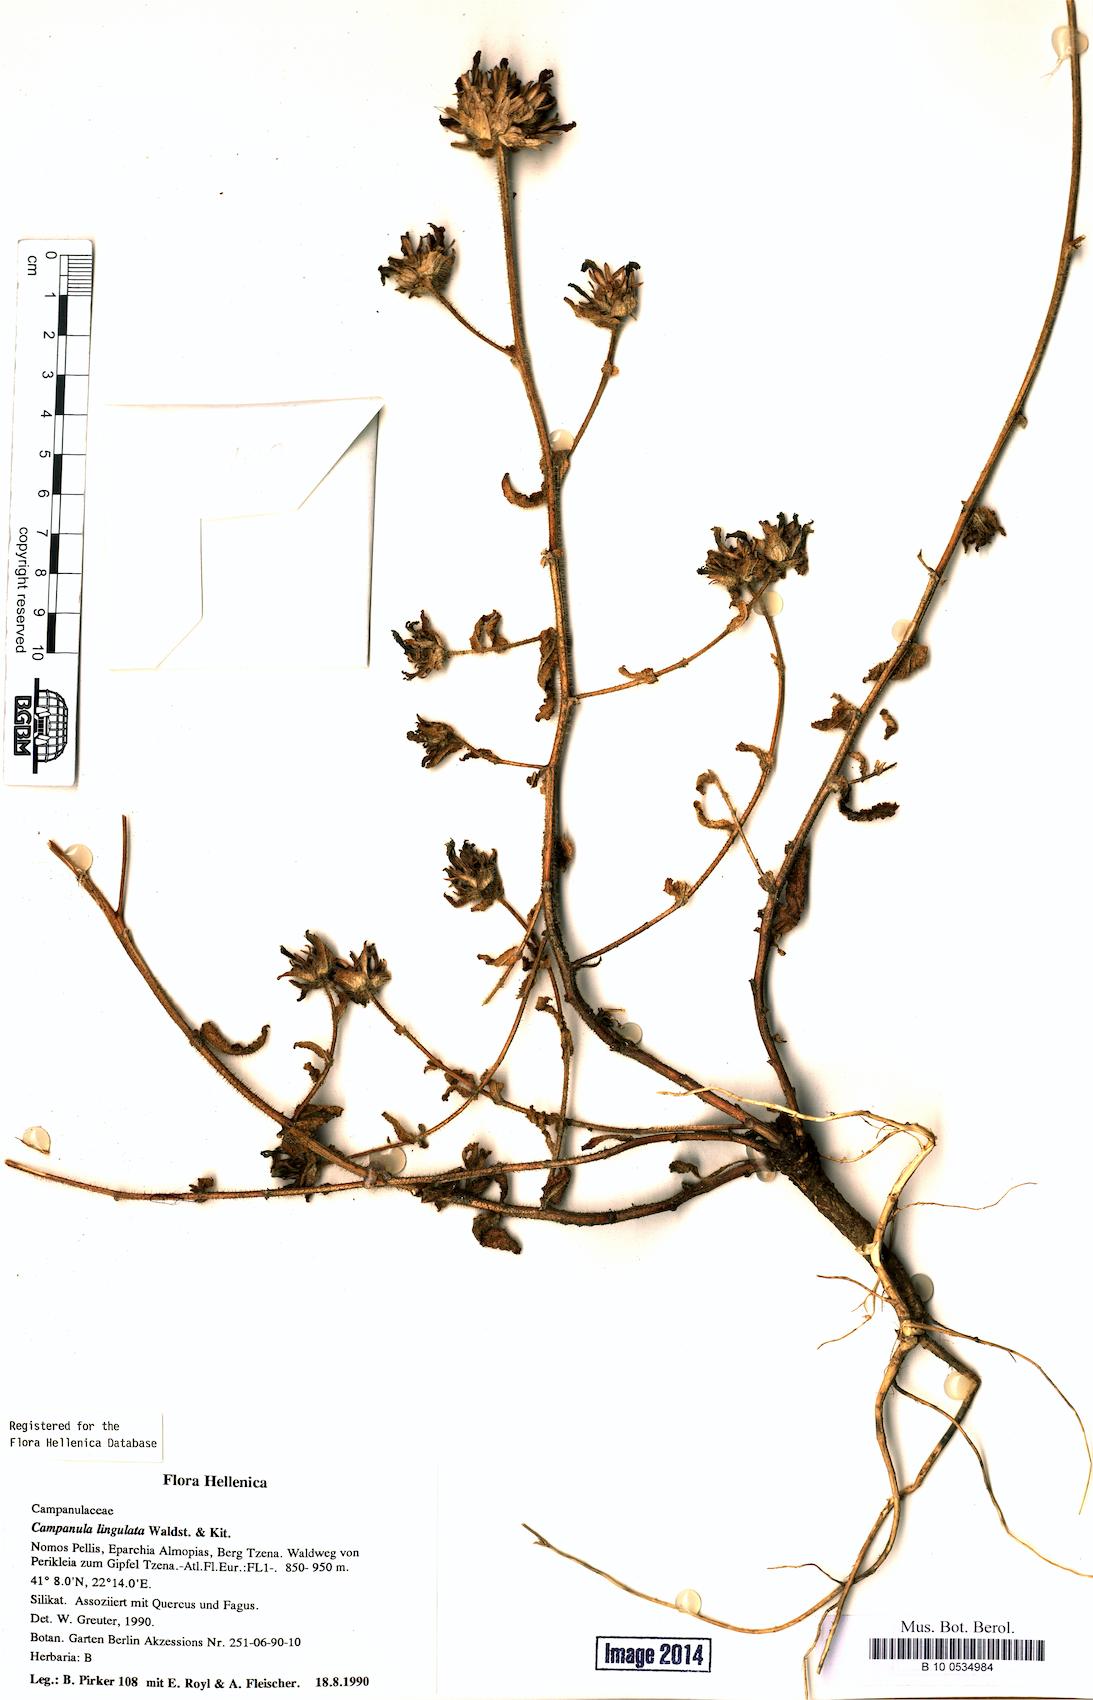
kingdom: Plantae
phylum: Tracheophyta
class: Magnoliopsida
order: Asterales
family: Campanulaceae
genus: Campanula
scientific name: Campanula lingulata
